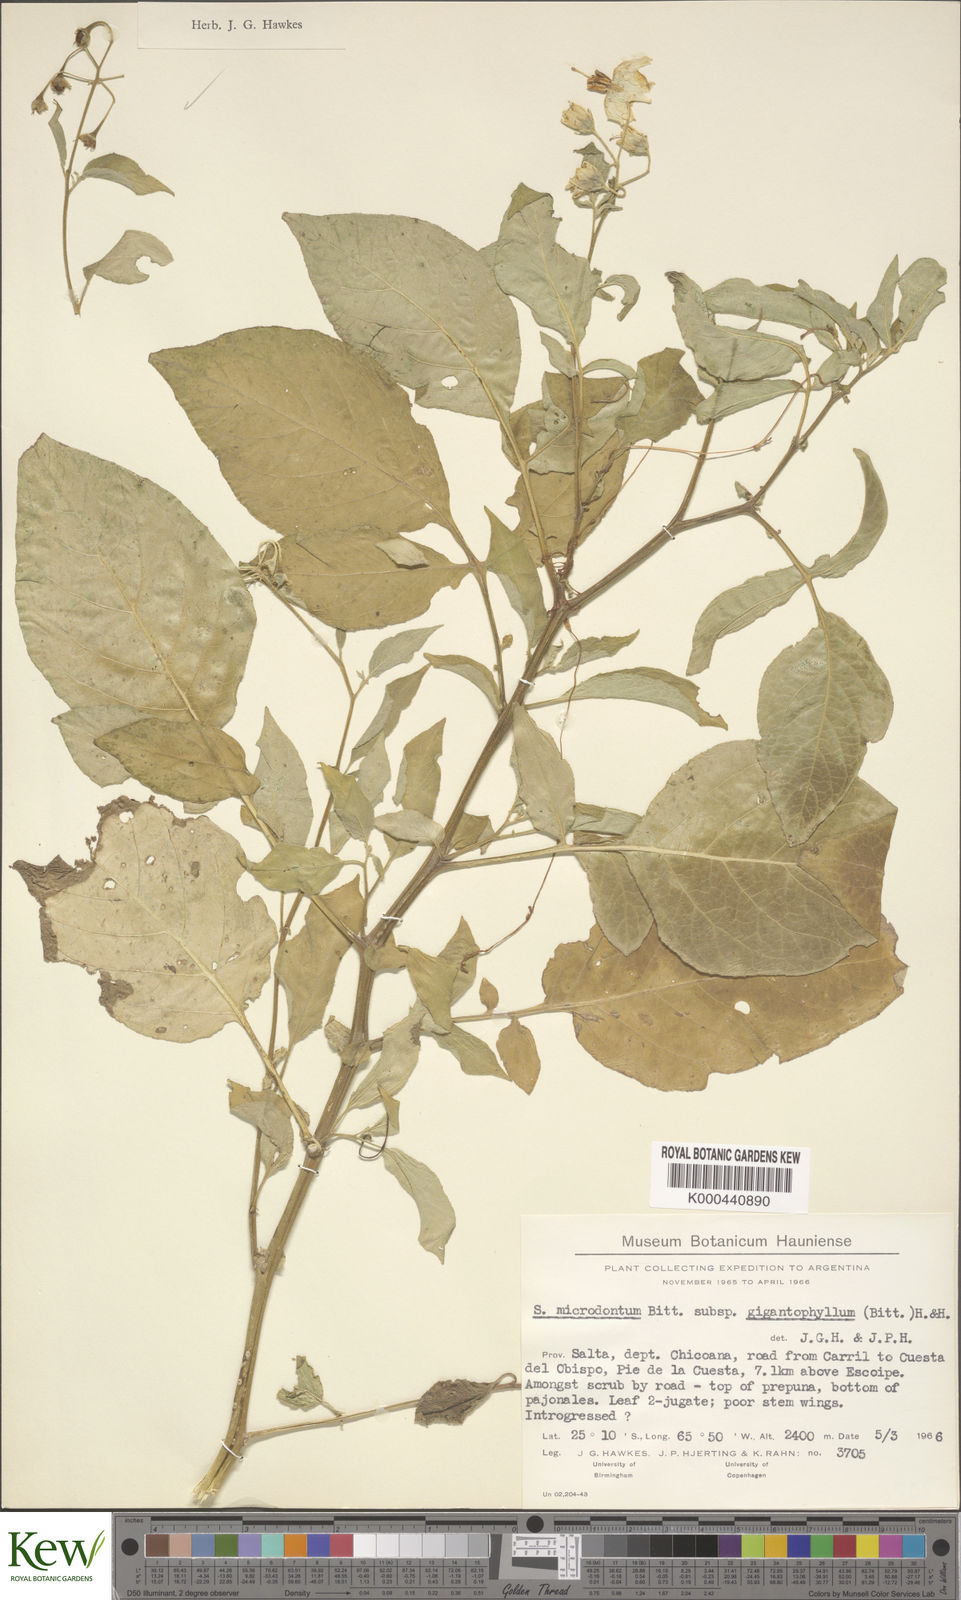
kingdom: Plantae
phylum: Tracheophyta
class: Magnoliopsida
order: Solanales
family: Solanaceae
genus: Solanum
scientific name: Solanum microdontum
